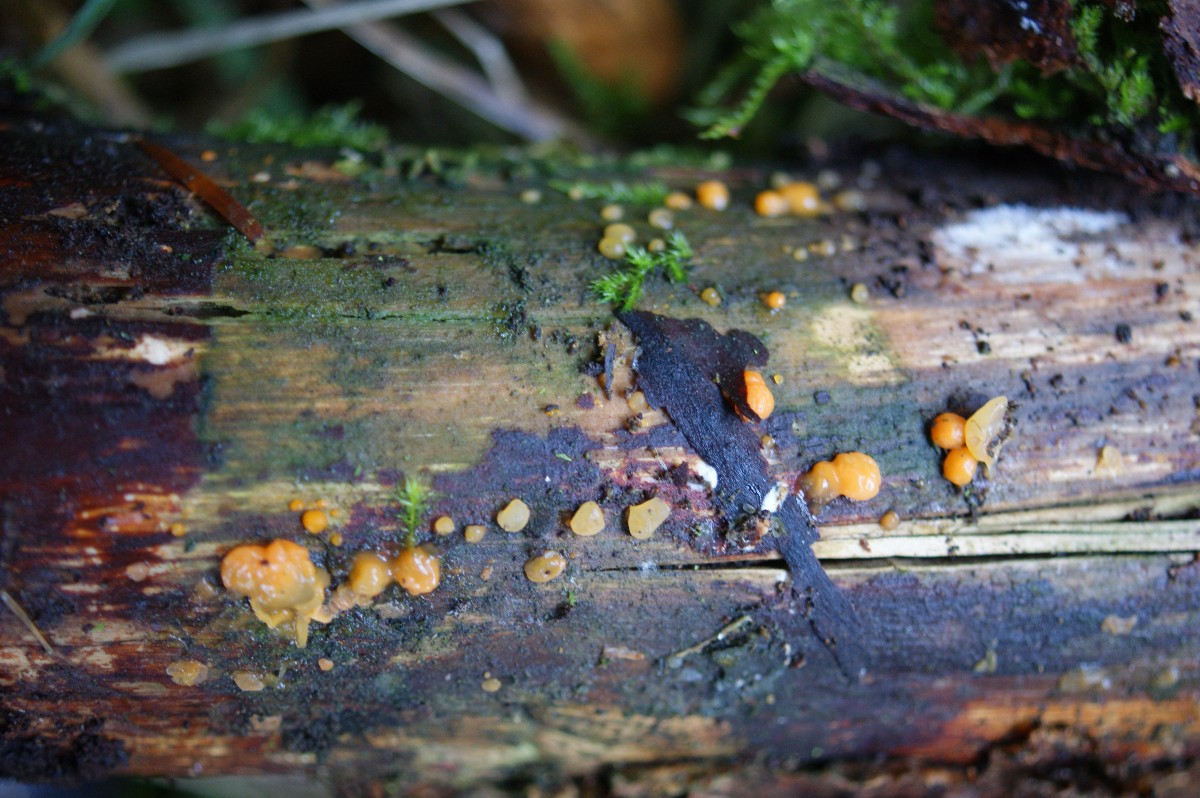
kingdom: Fungi
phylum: Basidiomycota
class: Dacrymycetes
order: Dacrymycetales
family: Dacrymycetaceae
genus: Dacrymyces
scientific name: Dacrymyces stillatus
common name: almindelig tåresvamp
